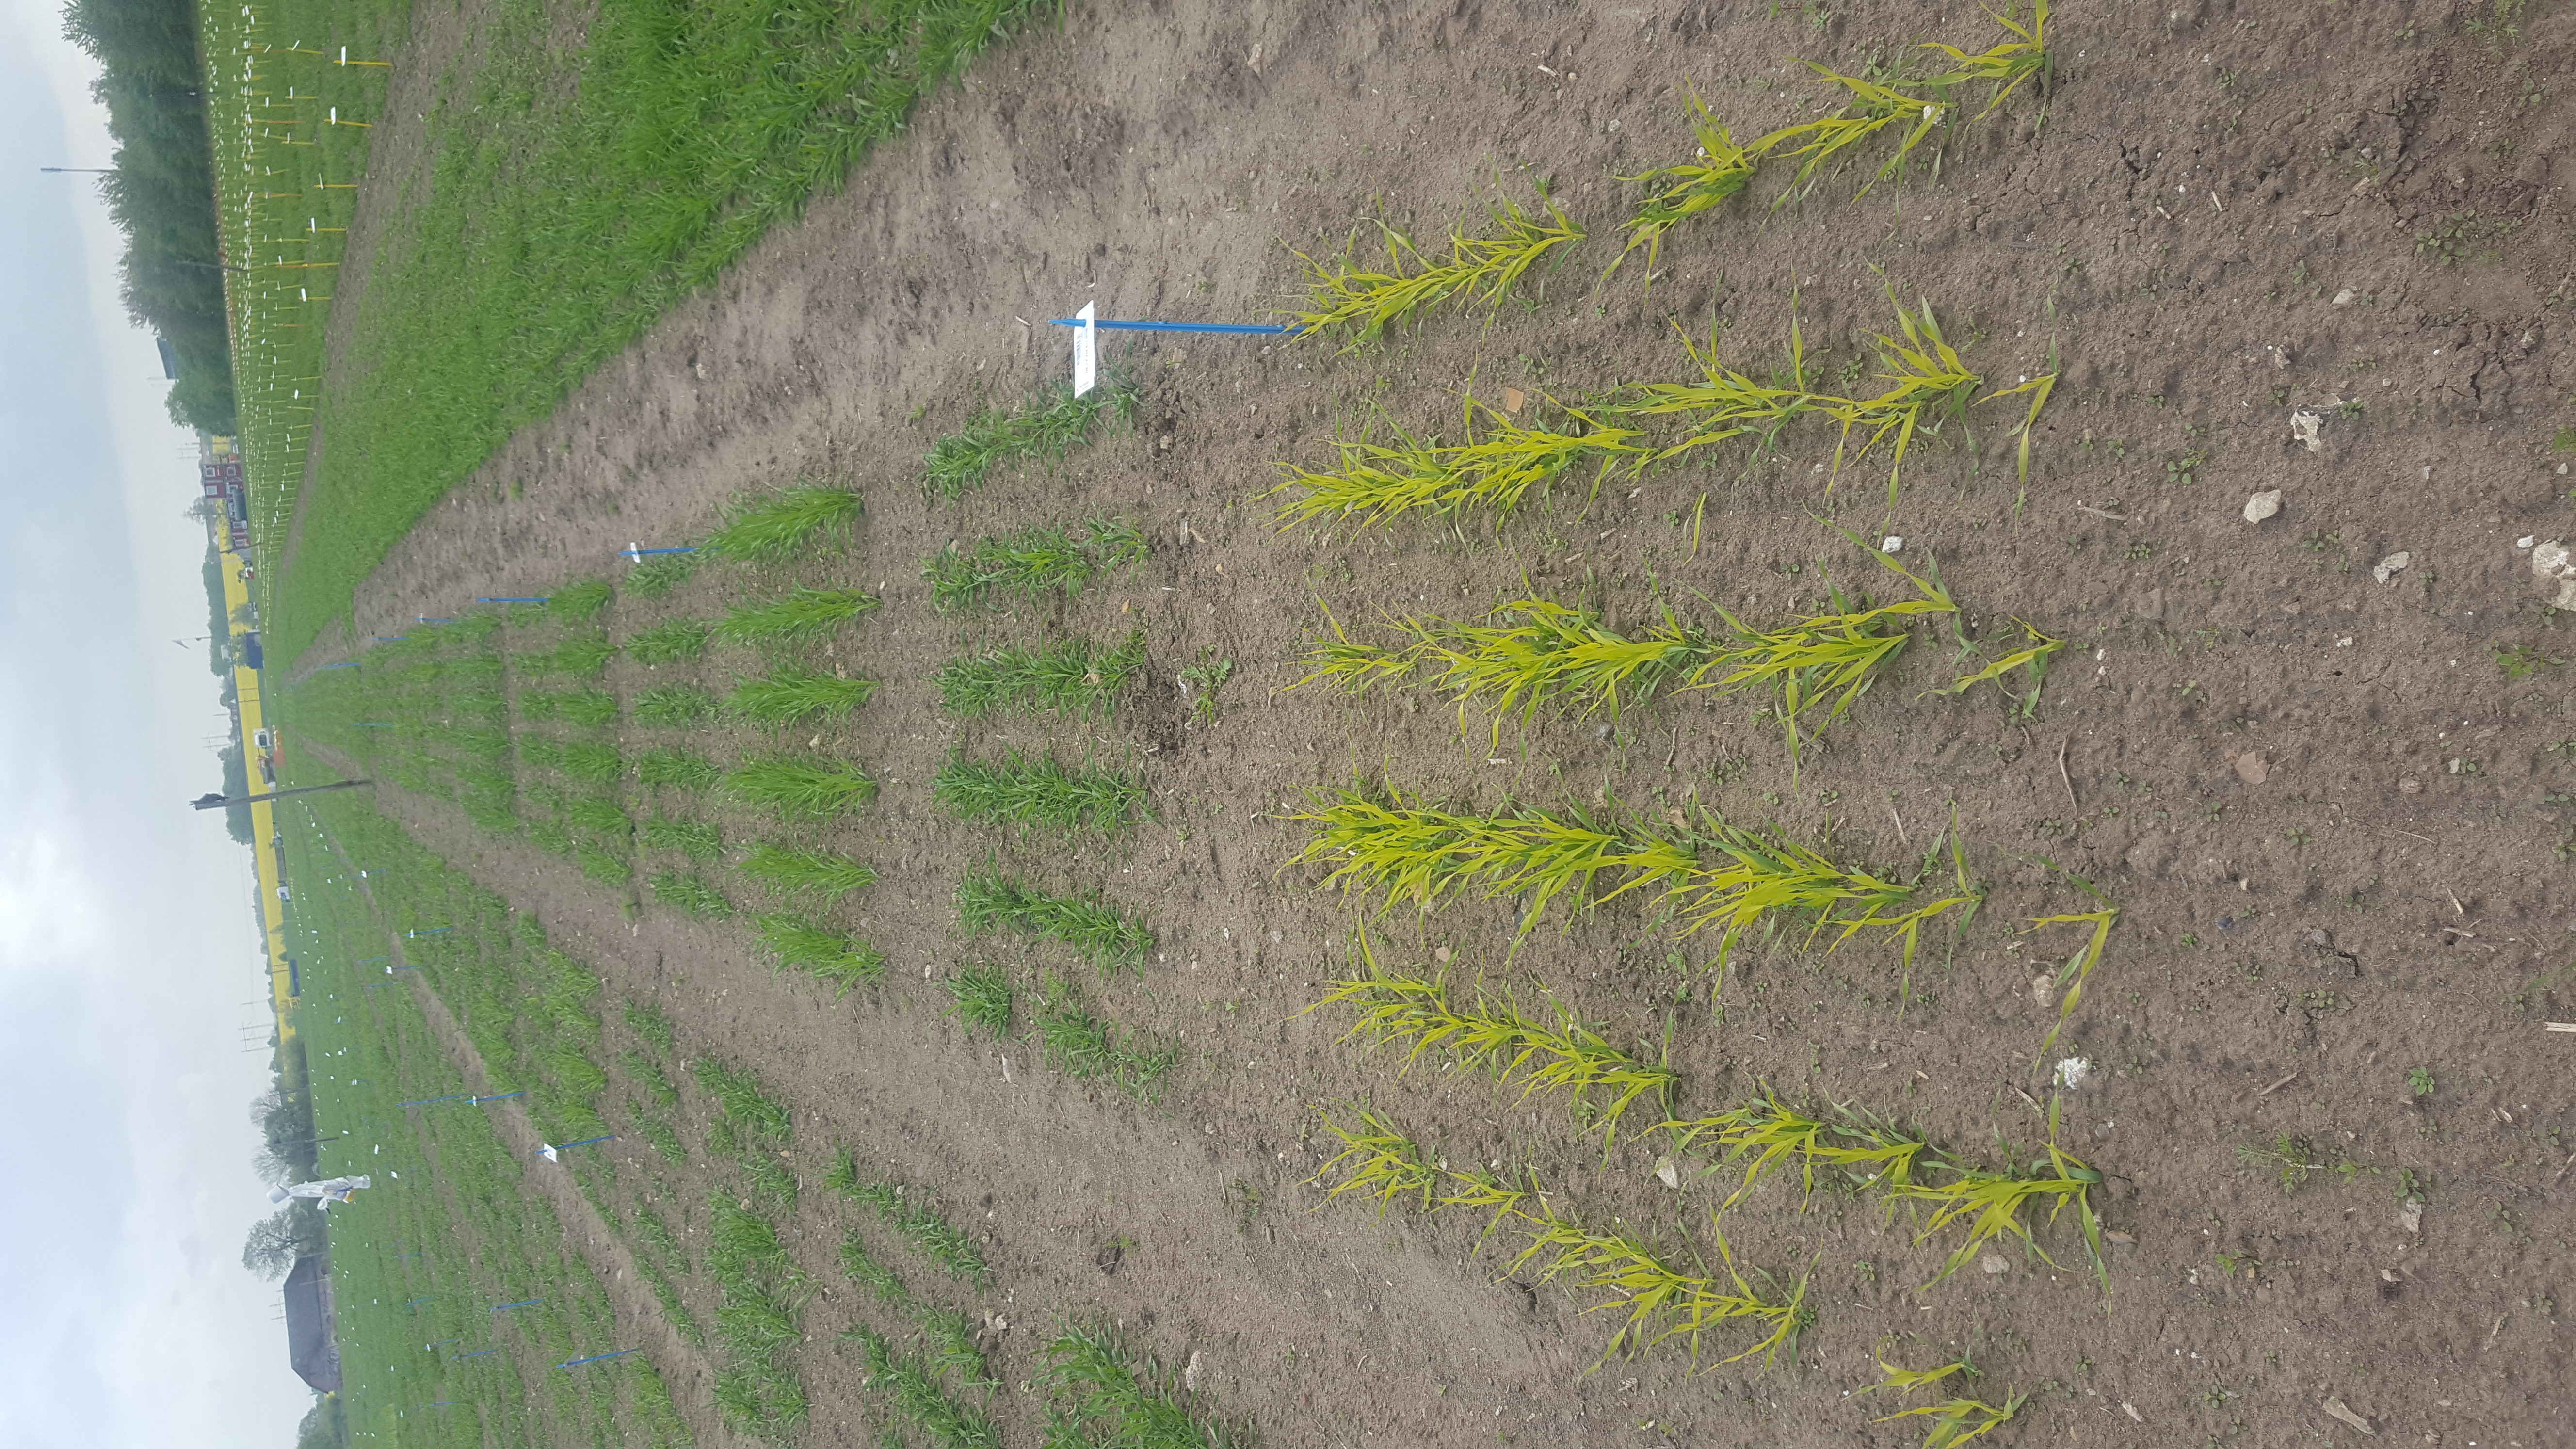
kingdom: Plantae
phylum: Tracheophyta
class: Liliopsida
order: Poales
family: Poaceae
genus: Hordeum
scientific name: Hordeum vulgare
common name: Common barley
